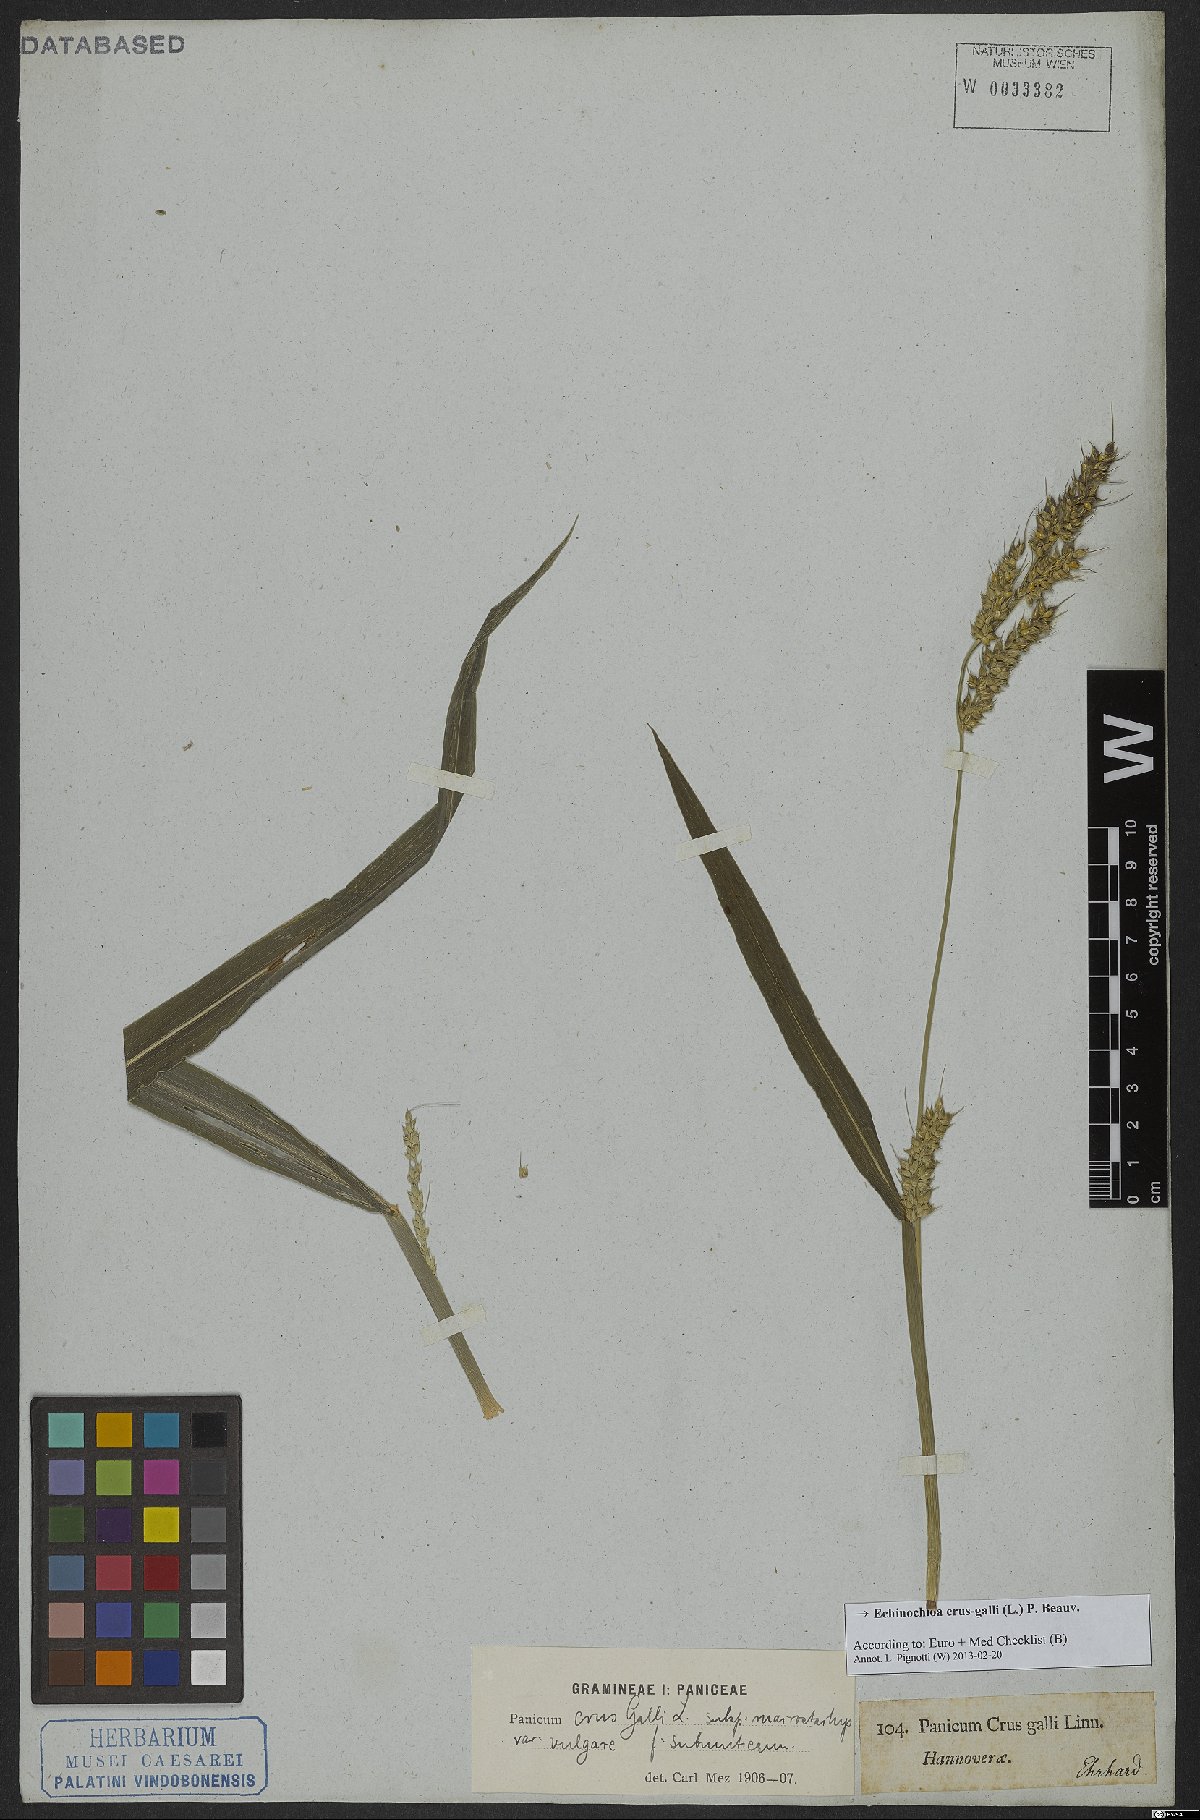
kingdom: Plantae
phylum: Tracheophyta
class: Liliopsida
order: Poales
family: Poaceae
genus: Echinochloa
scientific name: Echinochloa crus-galli
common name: Cockspur
